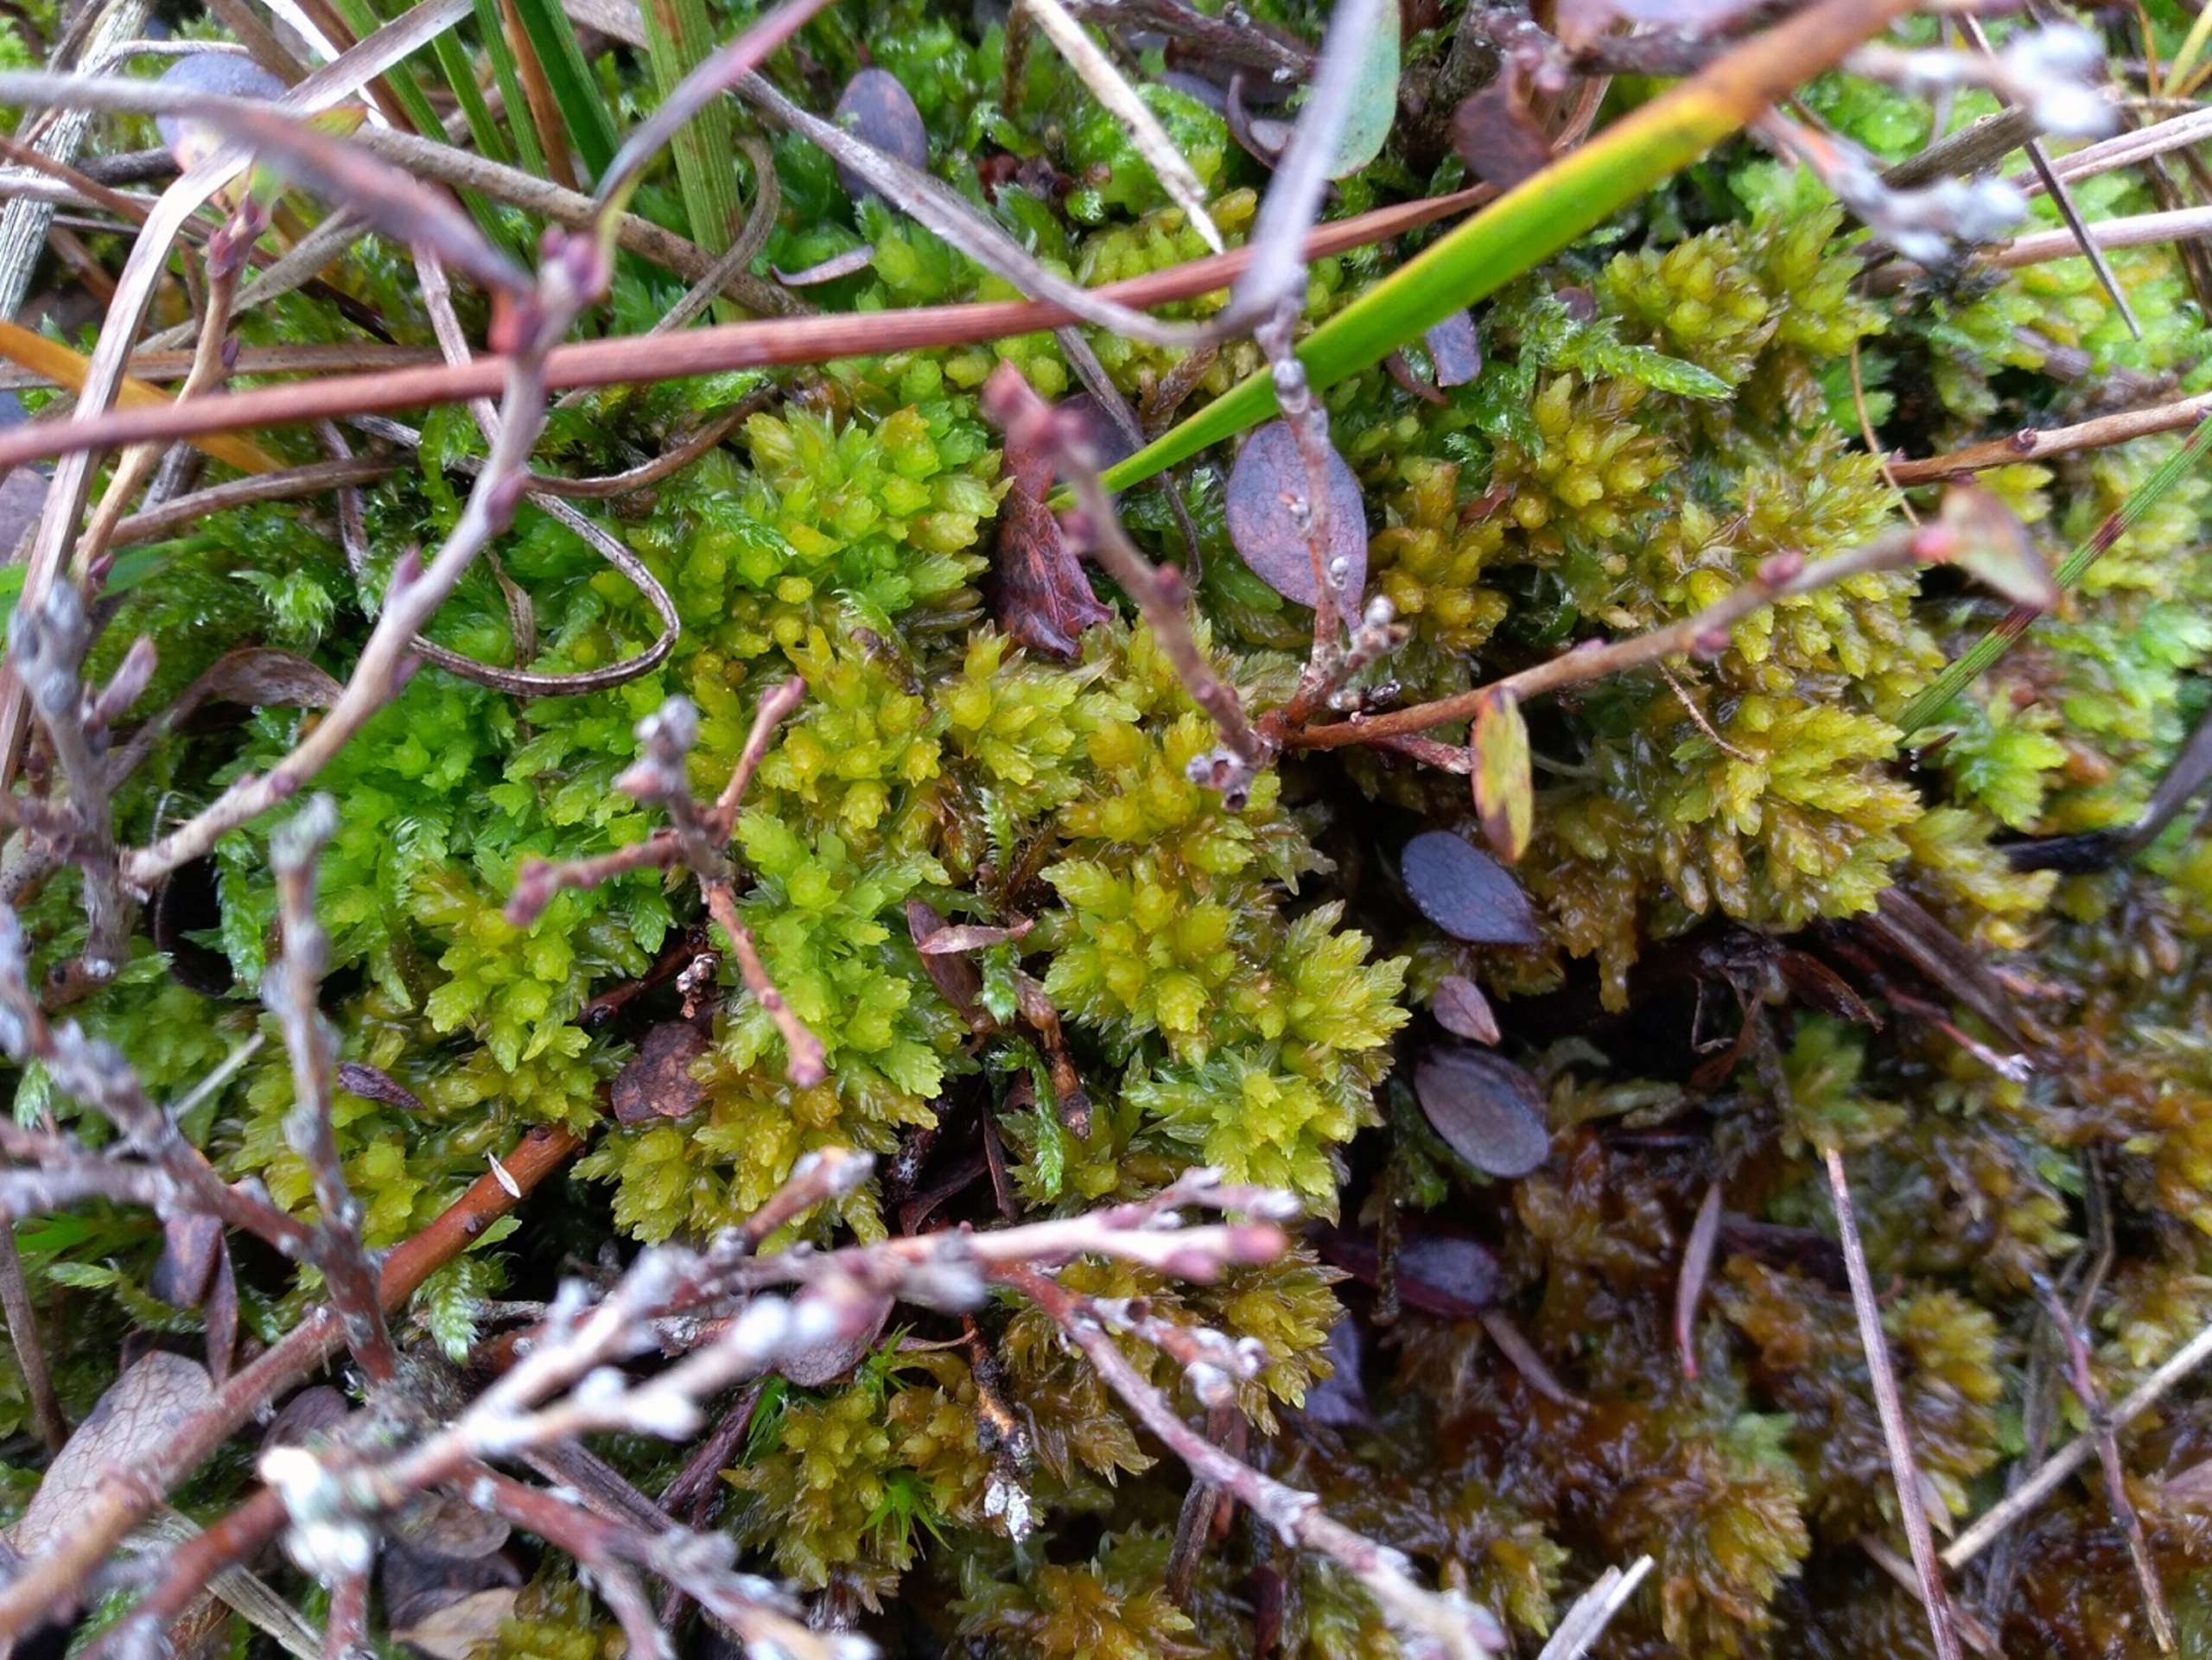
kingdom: Plantae
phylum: Bryophyta
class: Sphagnopsida
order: Sphagnales
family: Sphagnaceae
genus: Sphagnum
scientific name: Sphagnum compactum
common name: Tæt tørvemos
